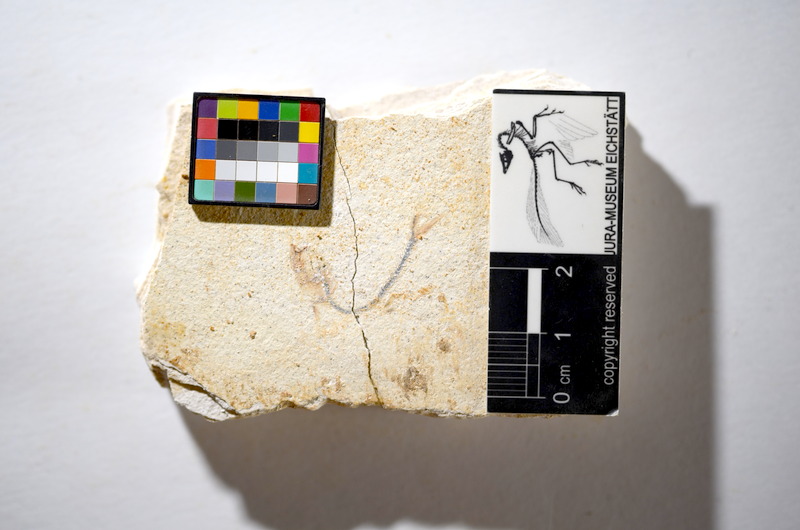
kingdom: Animalia
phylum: Chordata
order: Salmoniformes
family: Orthogonikleithridae
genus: Orthogonikleithrus
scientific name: Orthogonikleithrus hoelli
